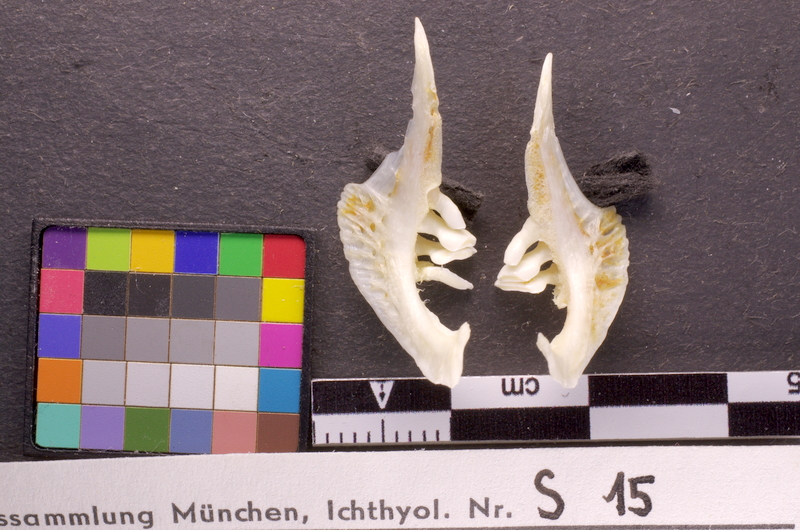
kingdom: Animalia
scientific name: Animalia
